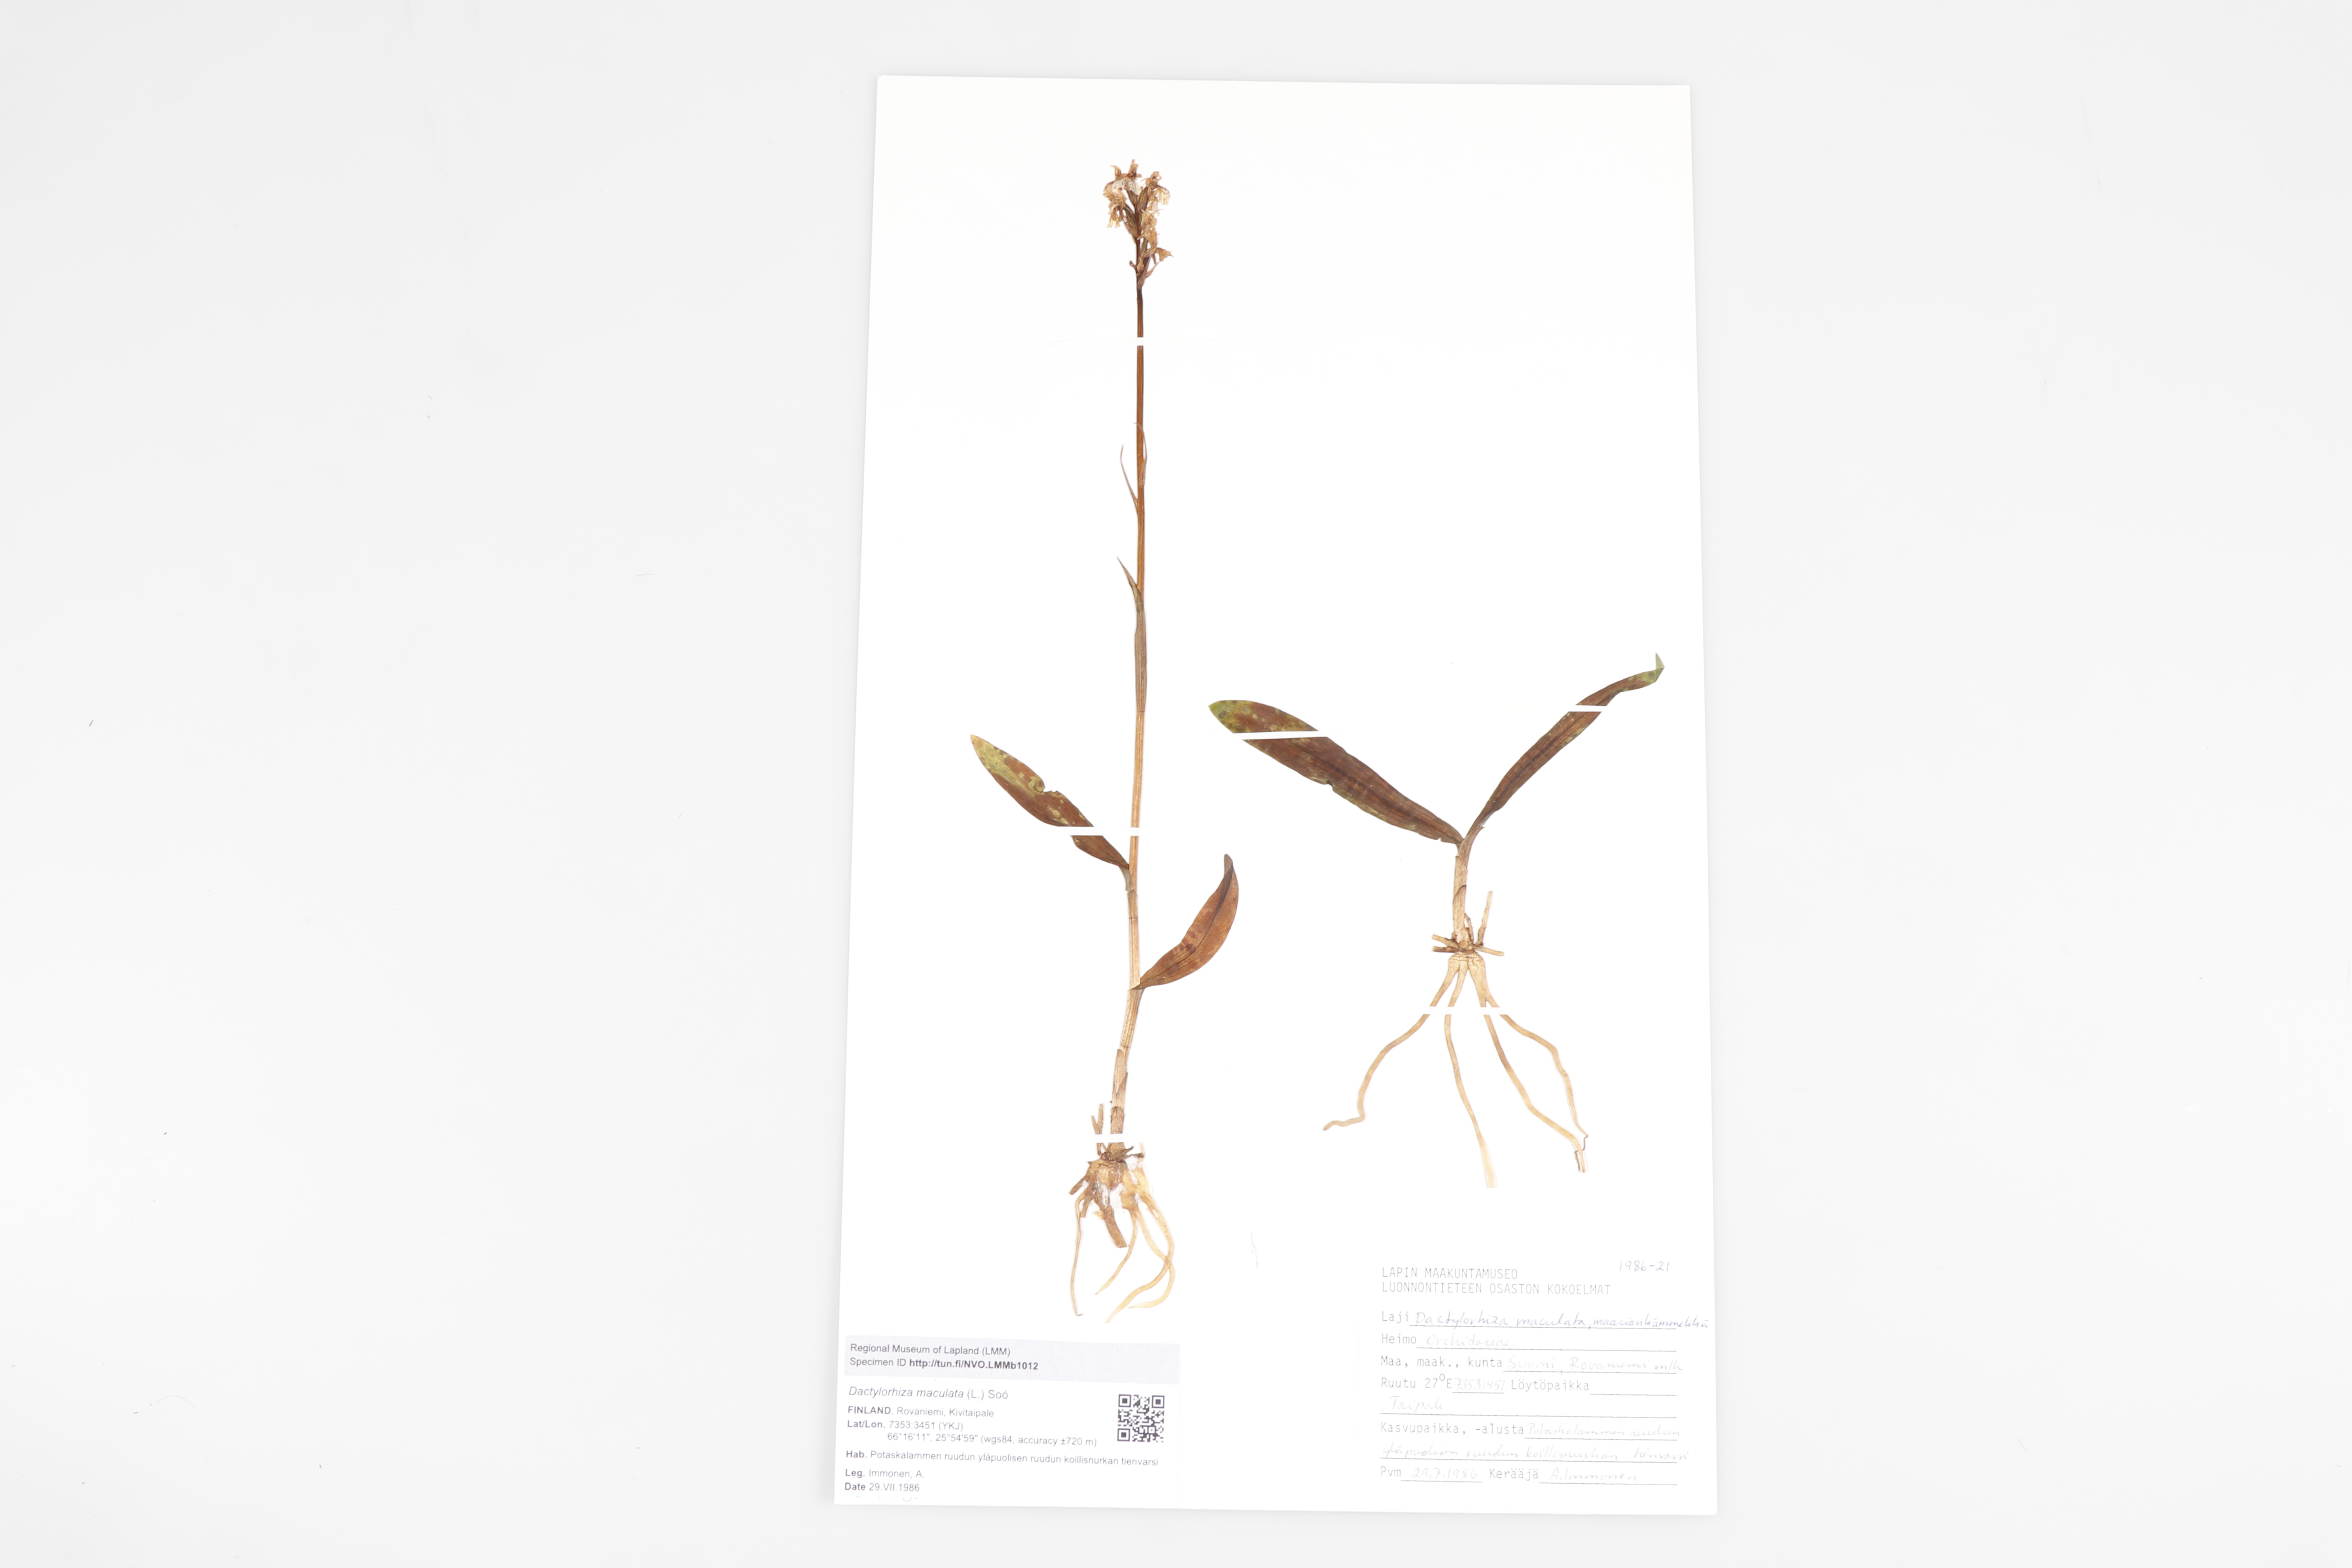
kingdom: Plantae
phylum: Tracheophyta
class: Liliopsida
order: Asparagales
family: Orchidaceae
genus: Dactylorhiza
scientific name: Dactylorhiza maculata
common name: Heath spotted-orchid
